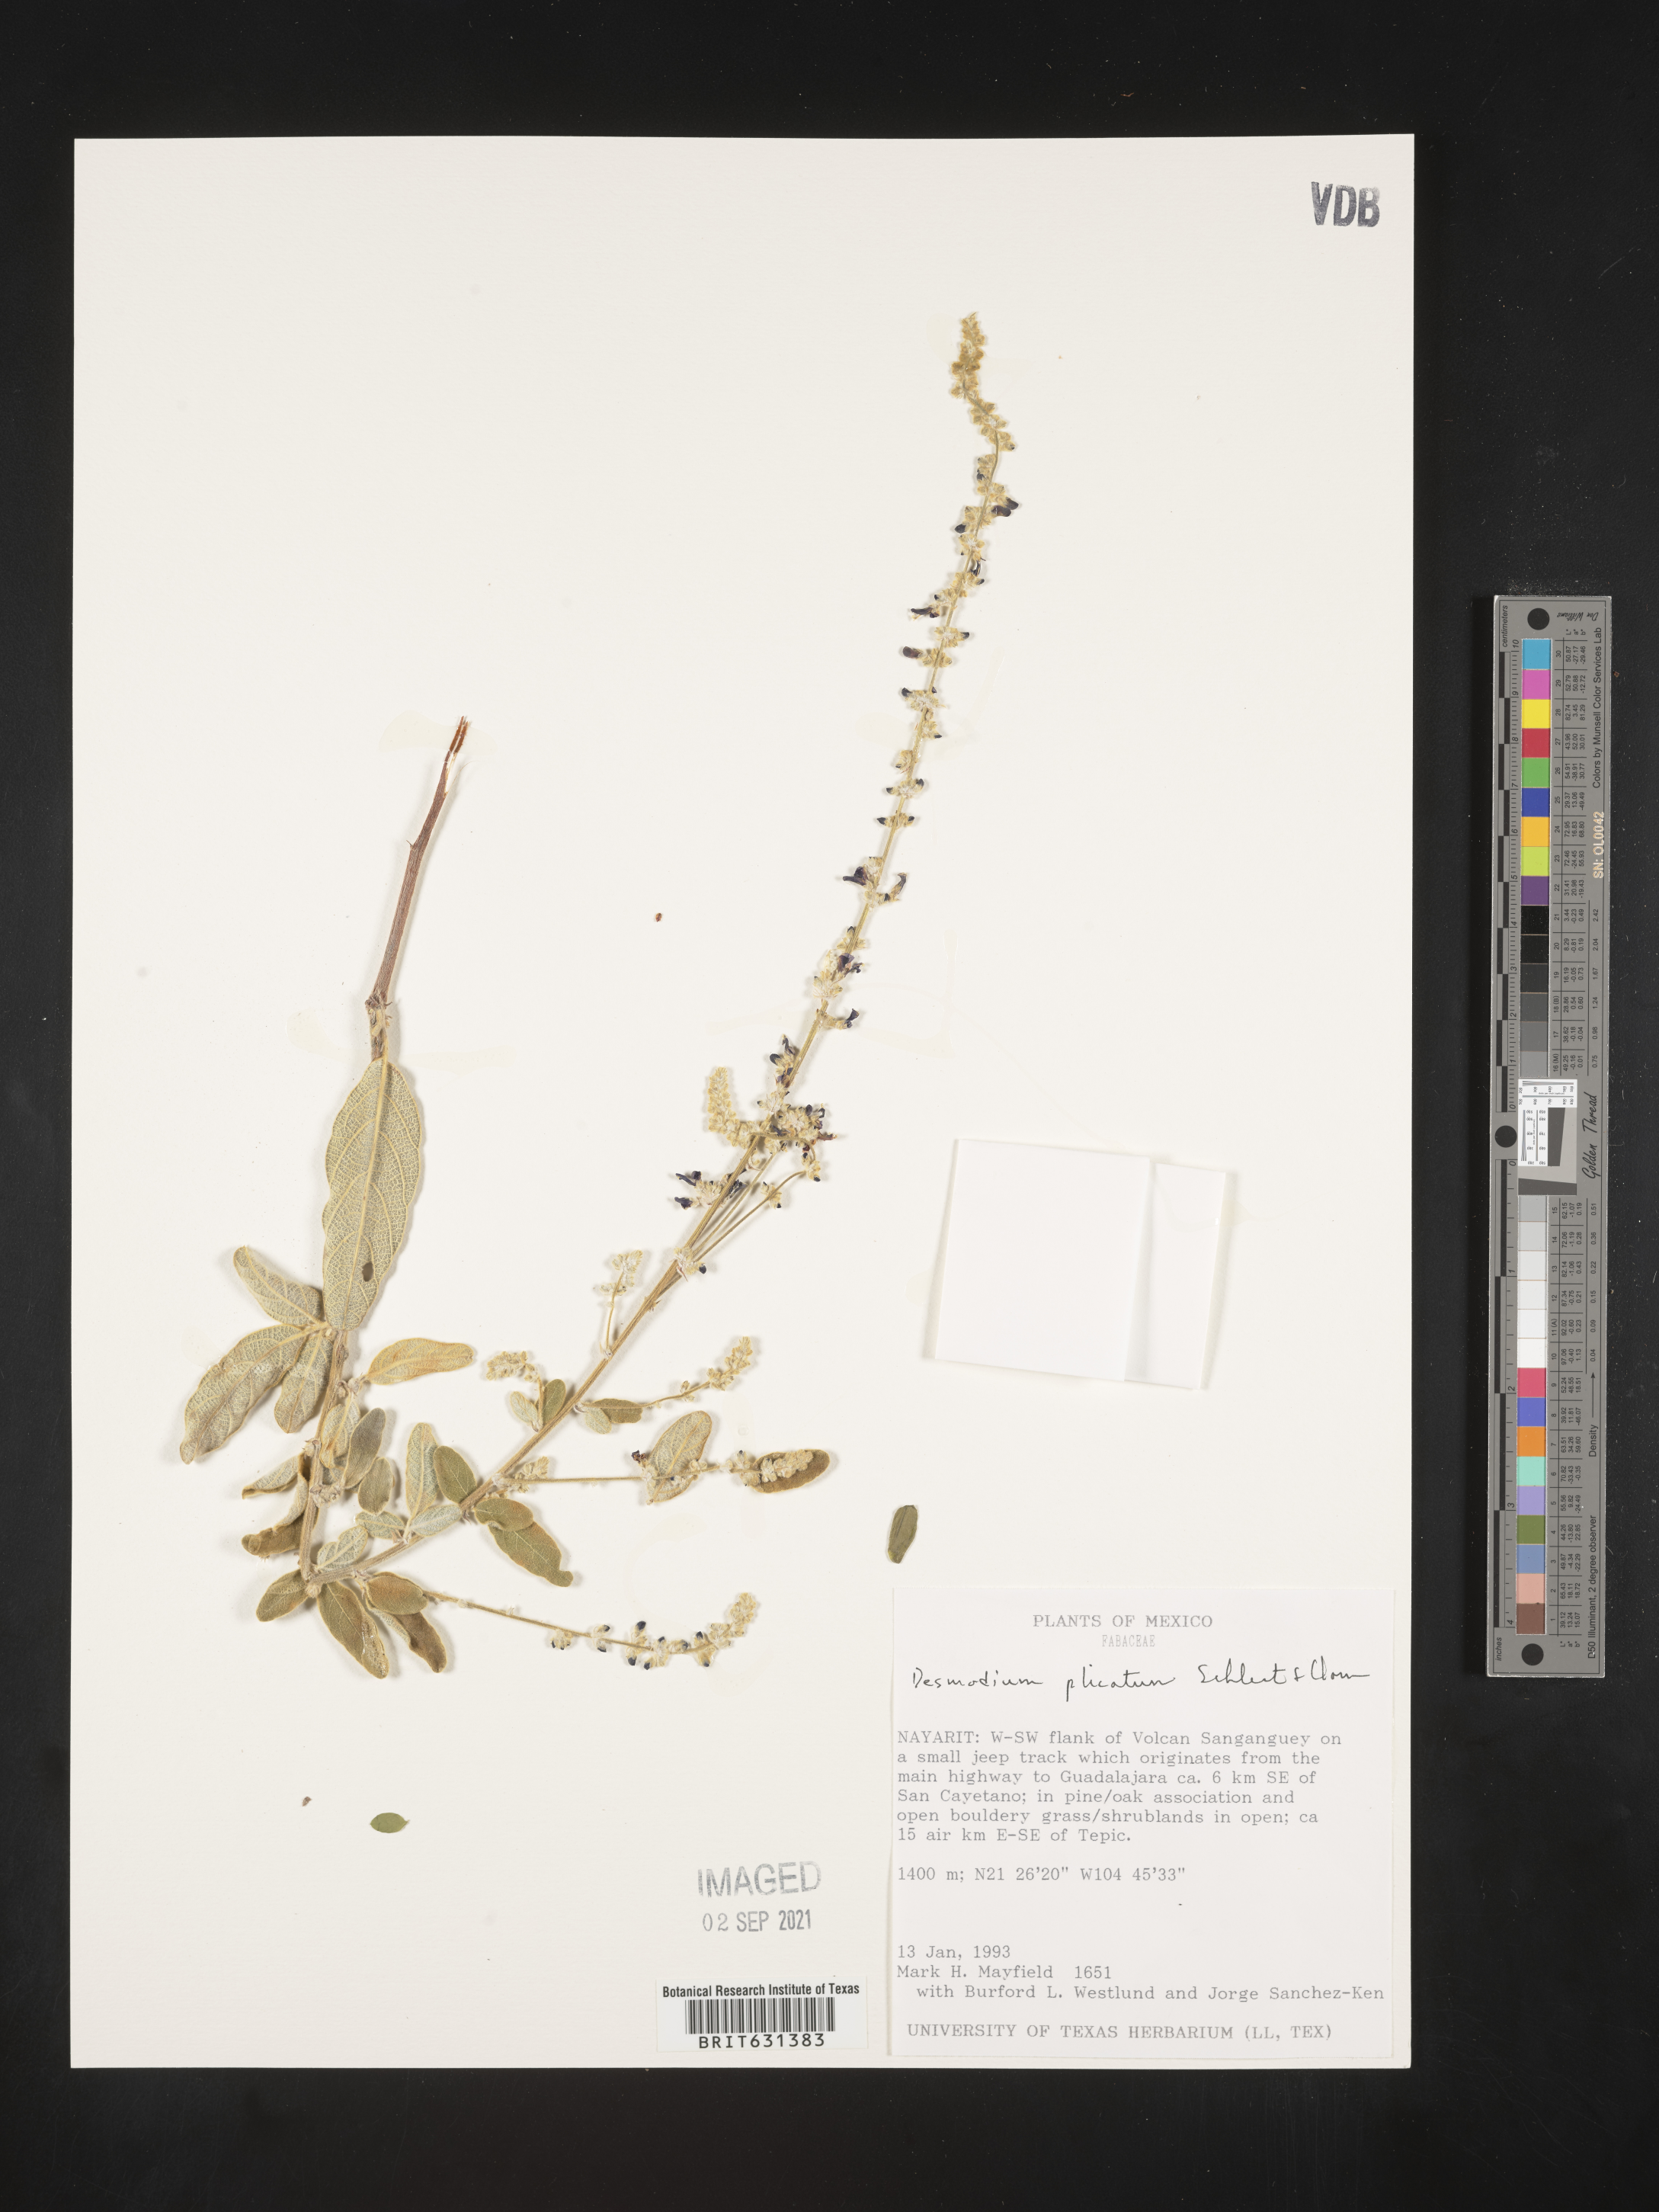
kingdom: Plantae
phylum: Tracheophyta
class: Magnoliopsida
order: Fabales
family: Fabaceae
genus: Desmodium
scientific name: Desmodium plicatum
